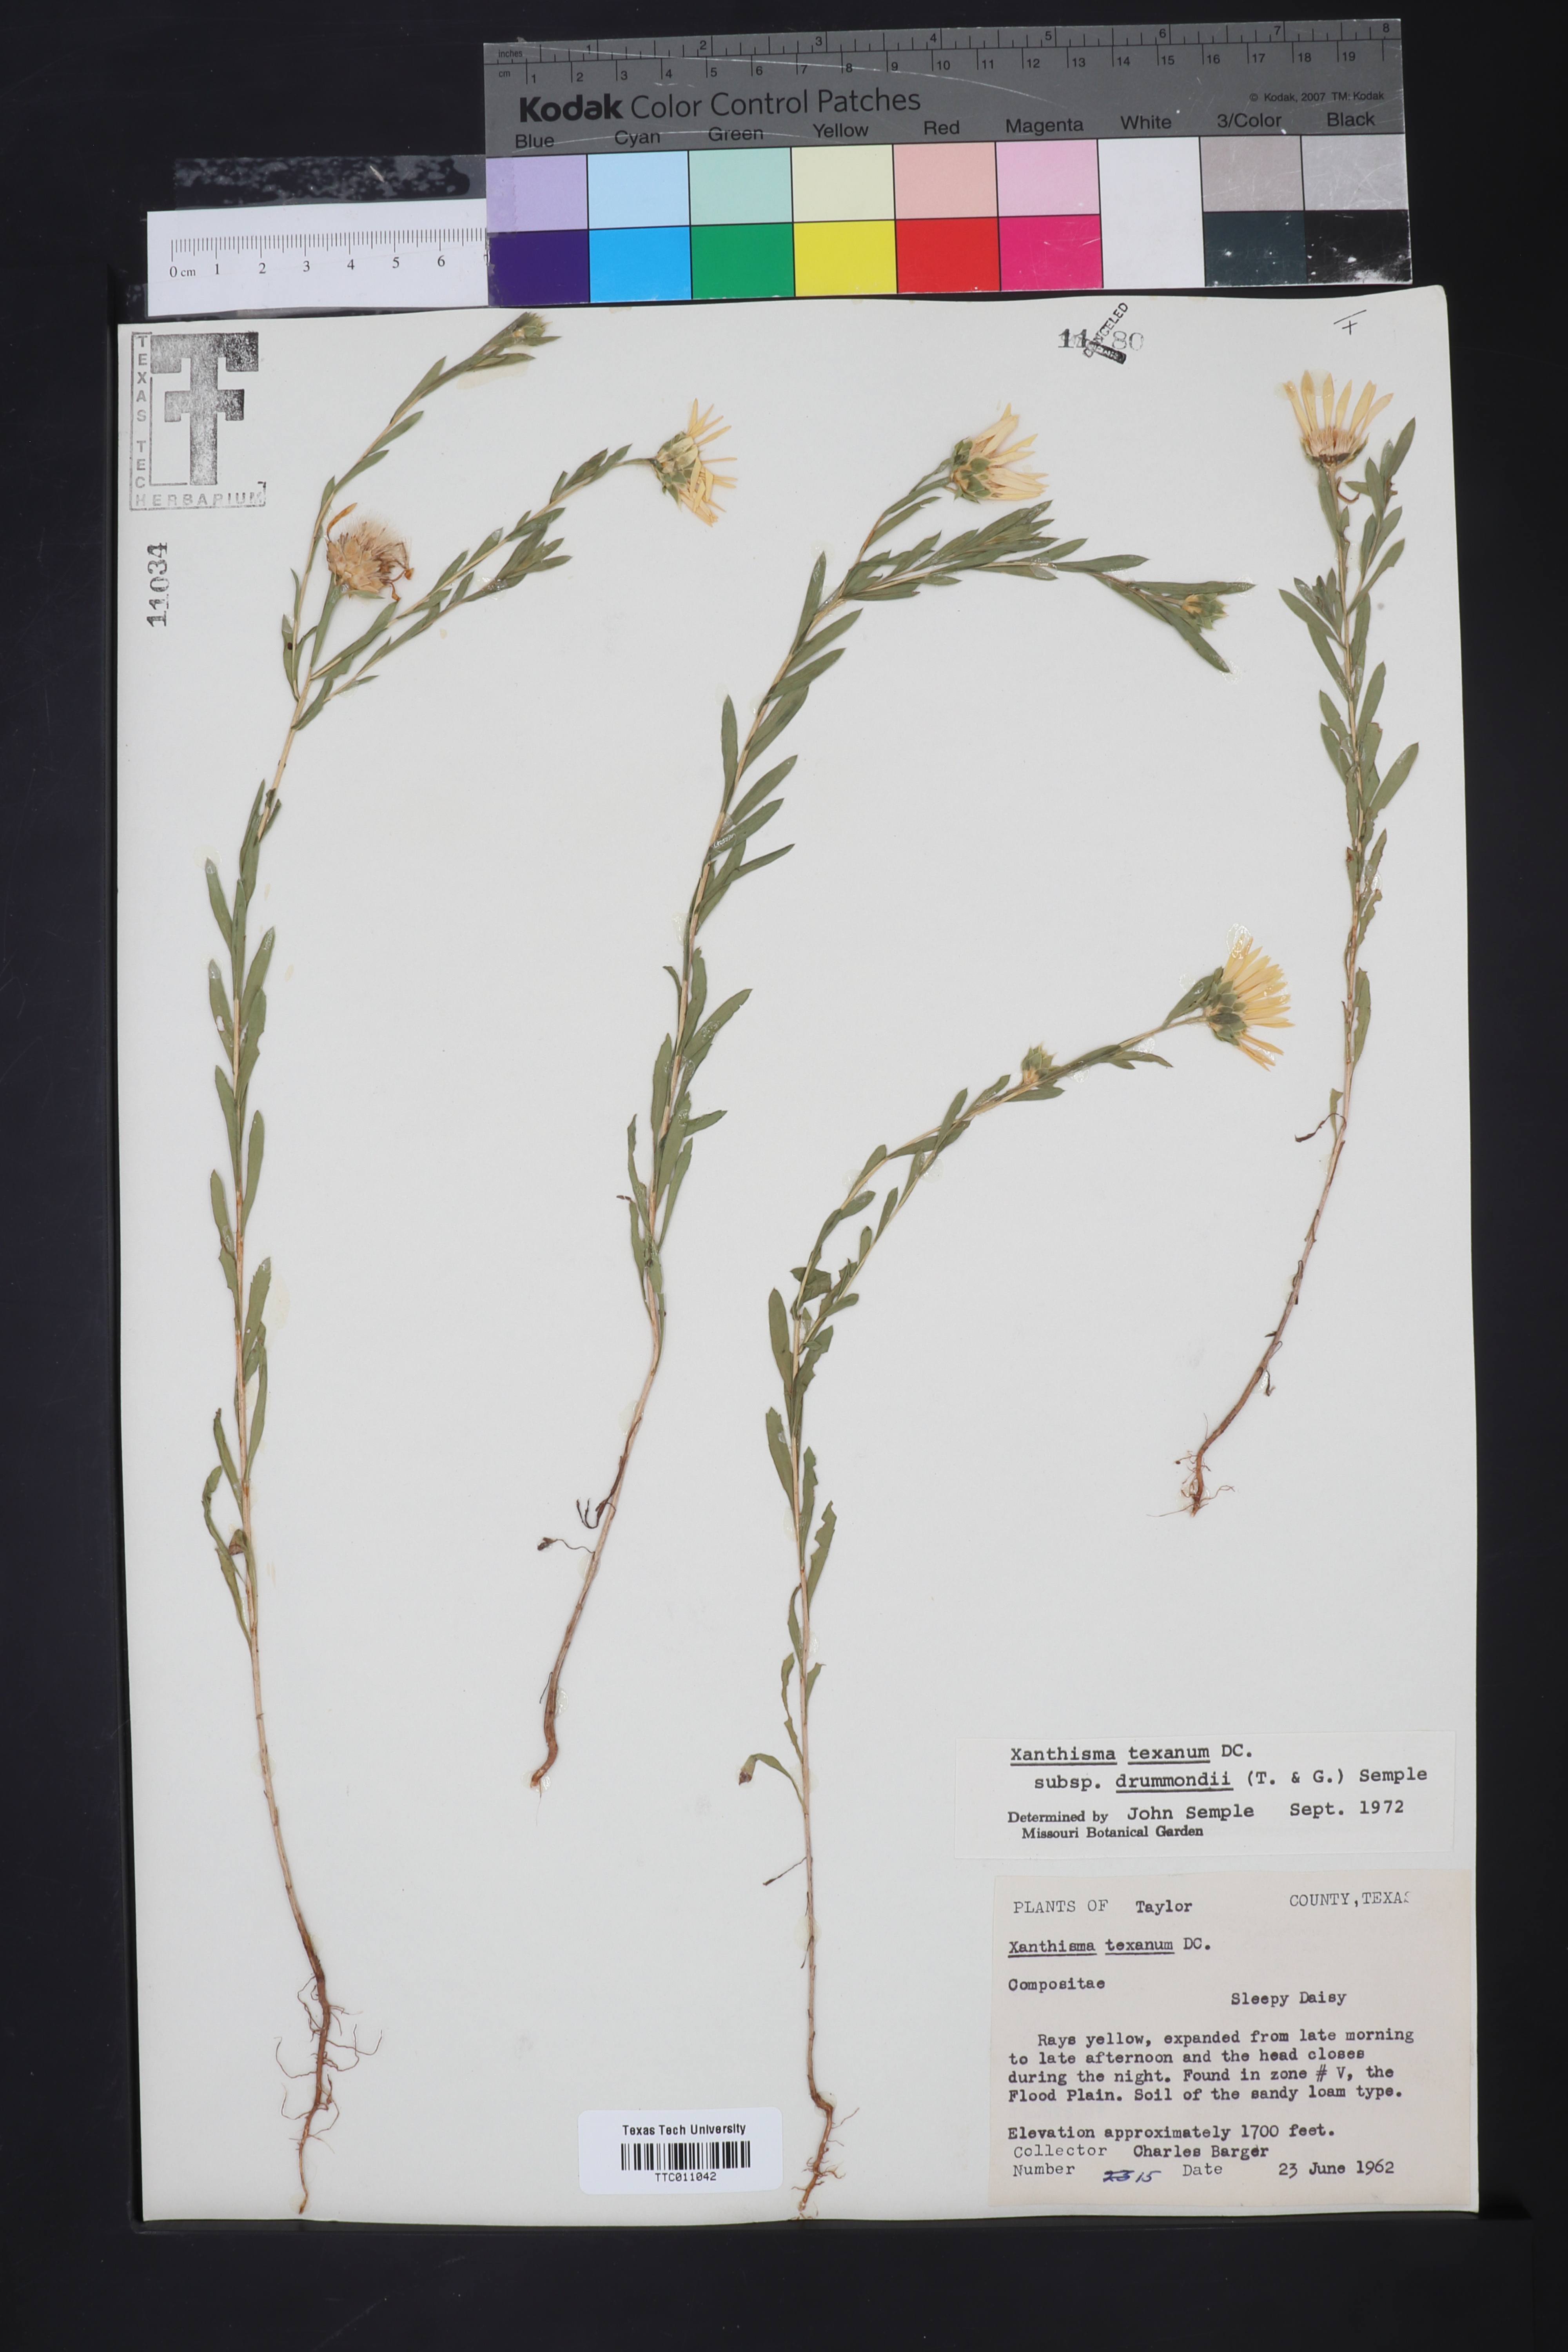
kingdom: Plantae
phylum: Tracheophyta
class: Magnoliopsida
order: Asterales
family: Asteraceae
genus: Xanthisma
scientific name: Xanthisma texanum
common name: Texas sleepy daisy
